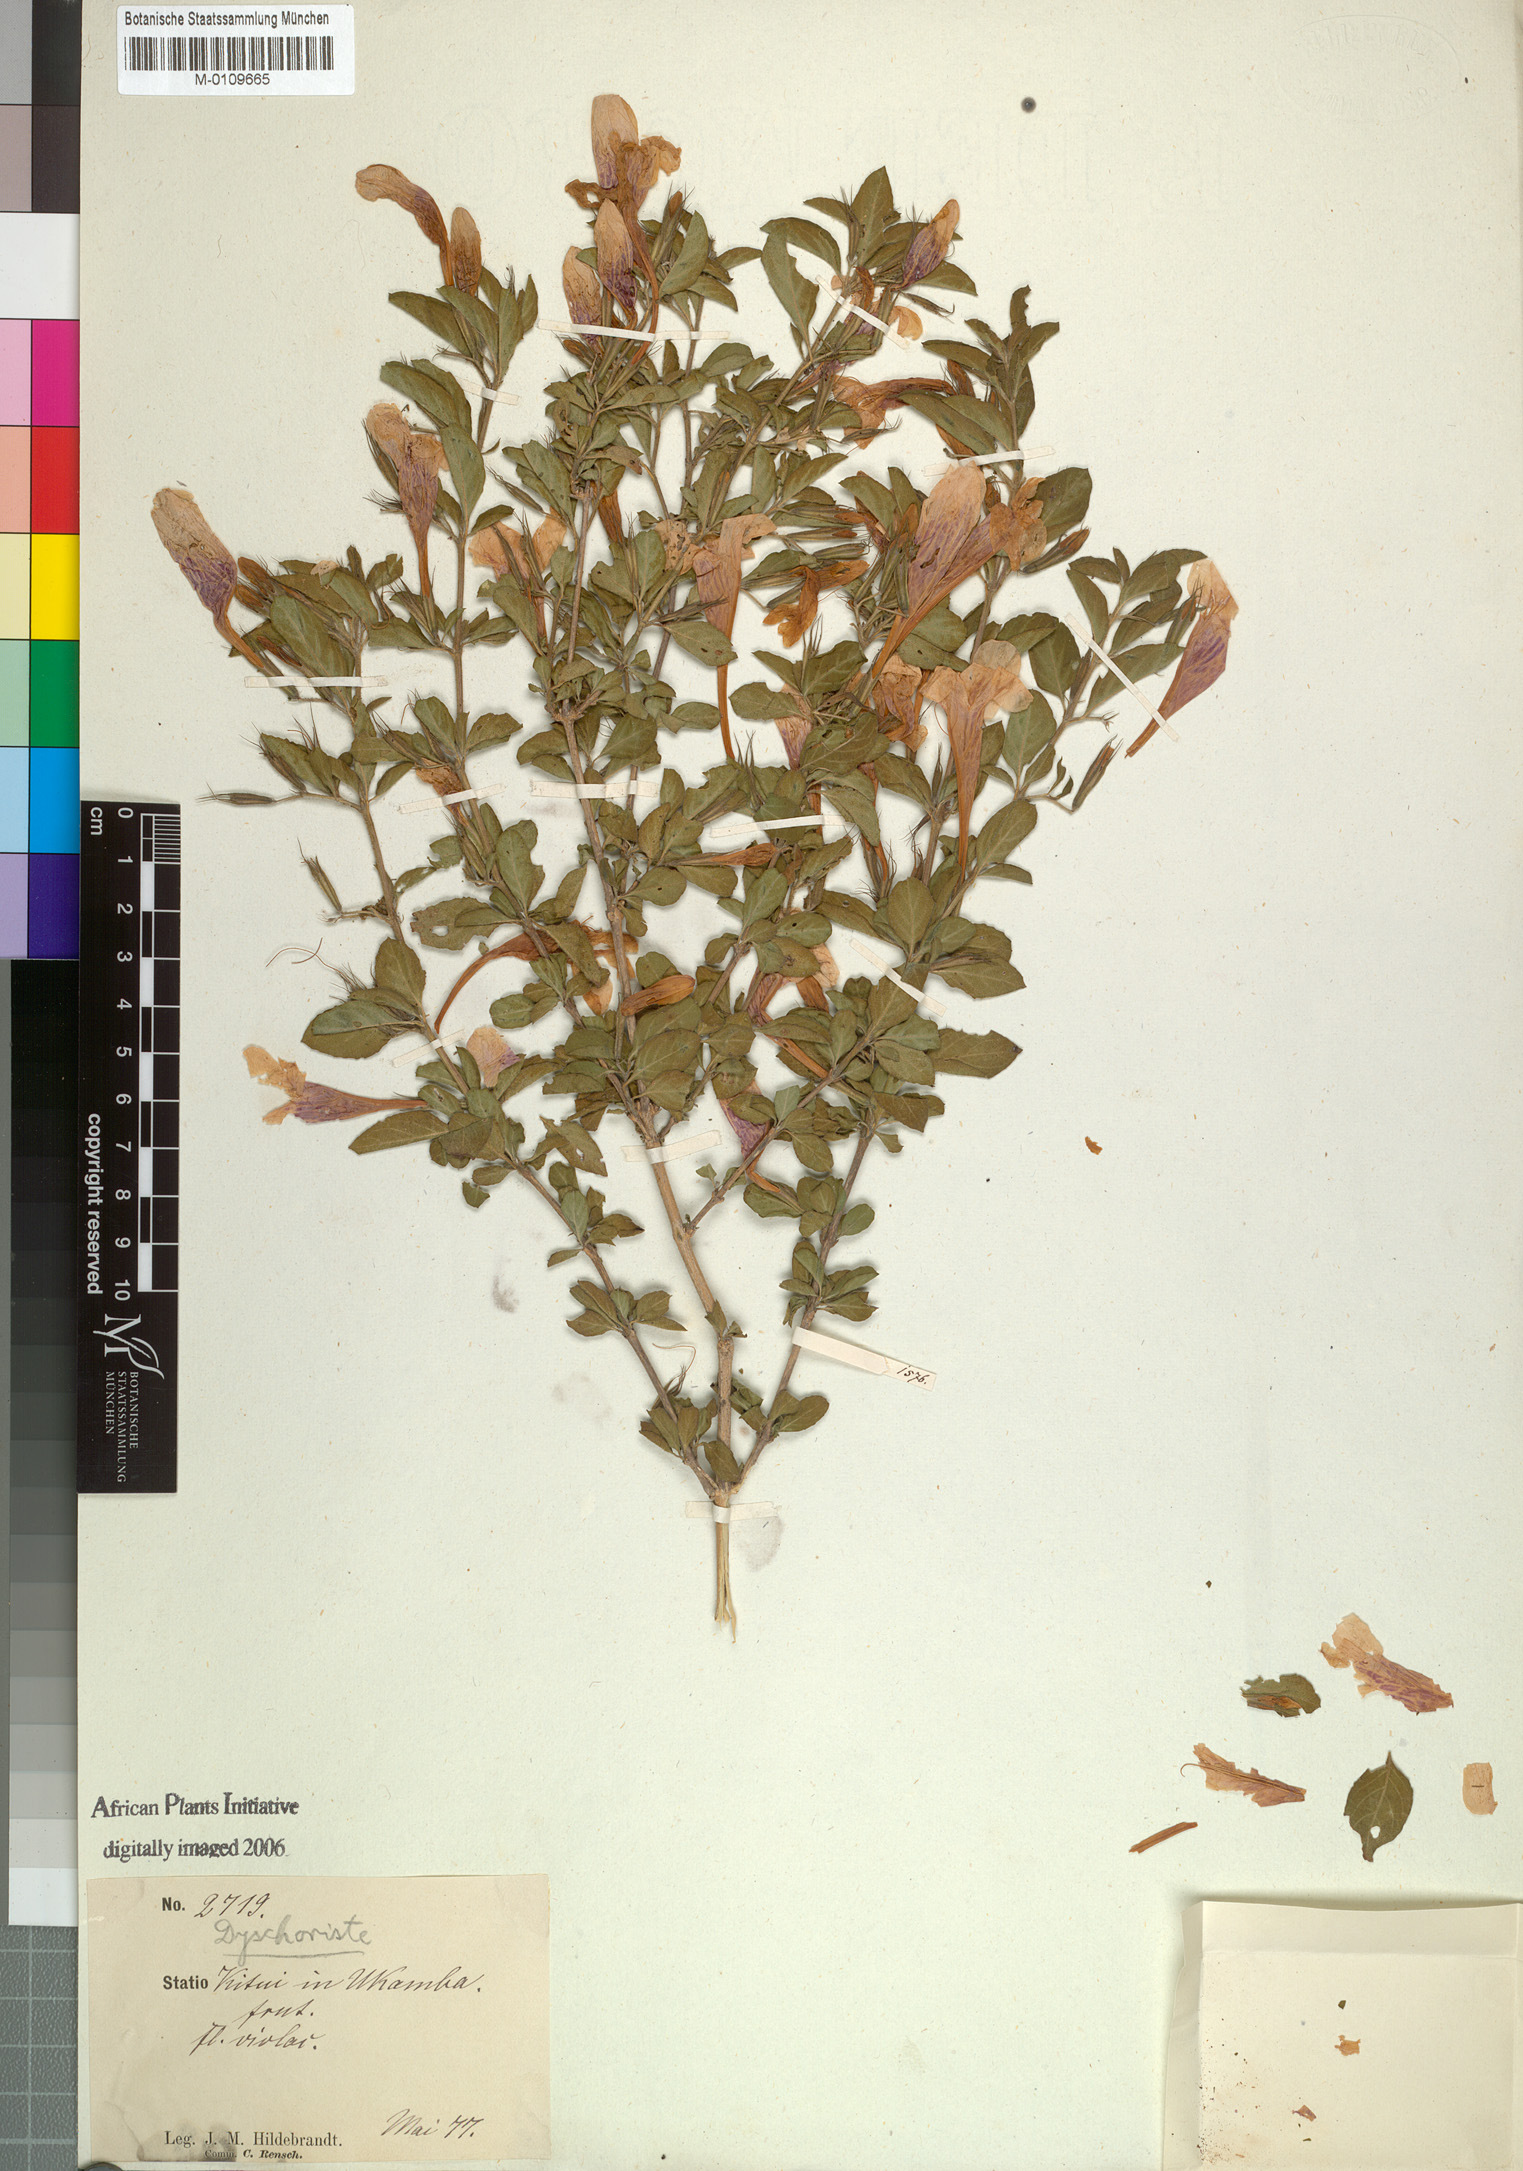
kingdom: Plantae
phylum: Tracheophyta
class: Magnoliopsida
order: Lamiales
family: Acanthaceae
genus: Dyschoriste
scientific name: Dyschoriste hildebrandtii
